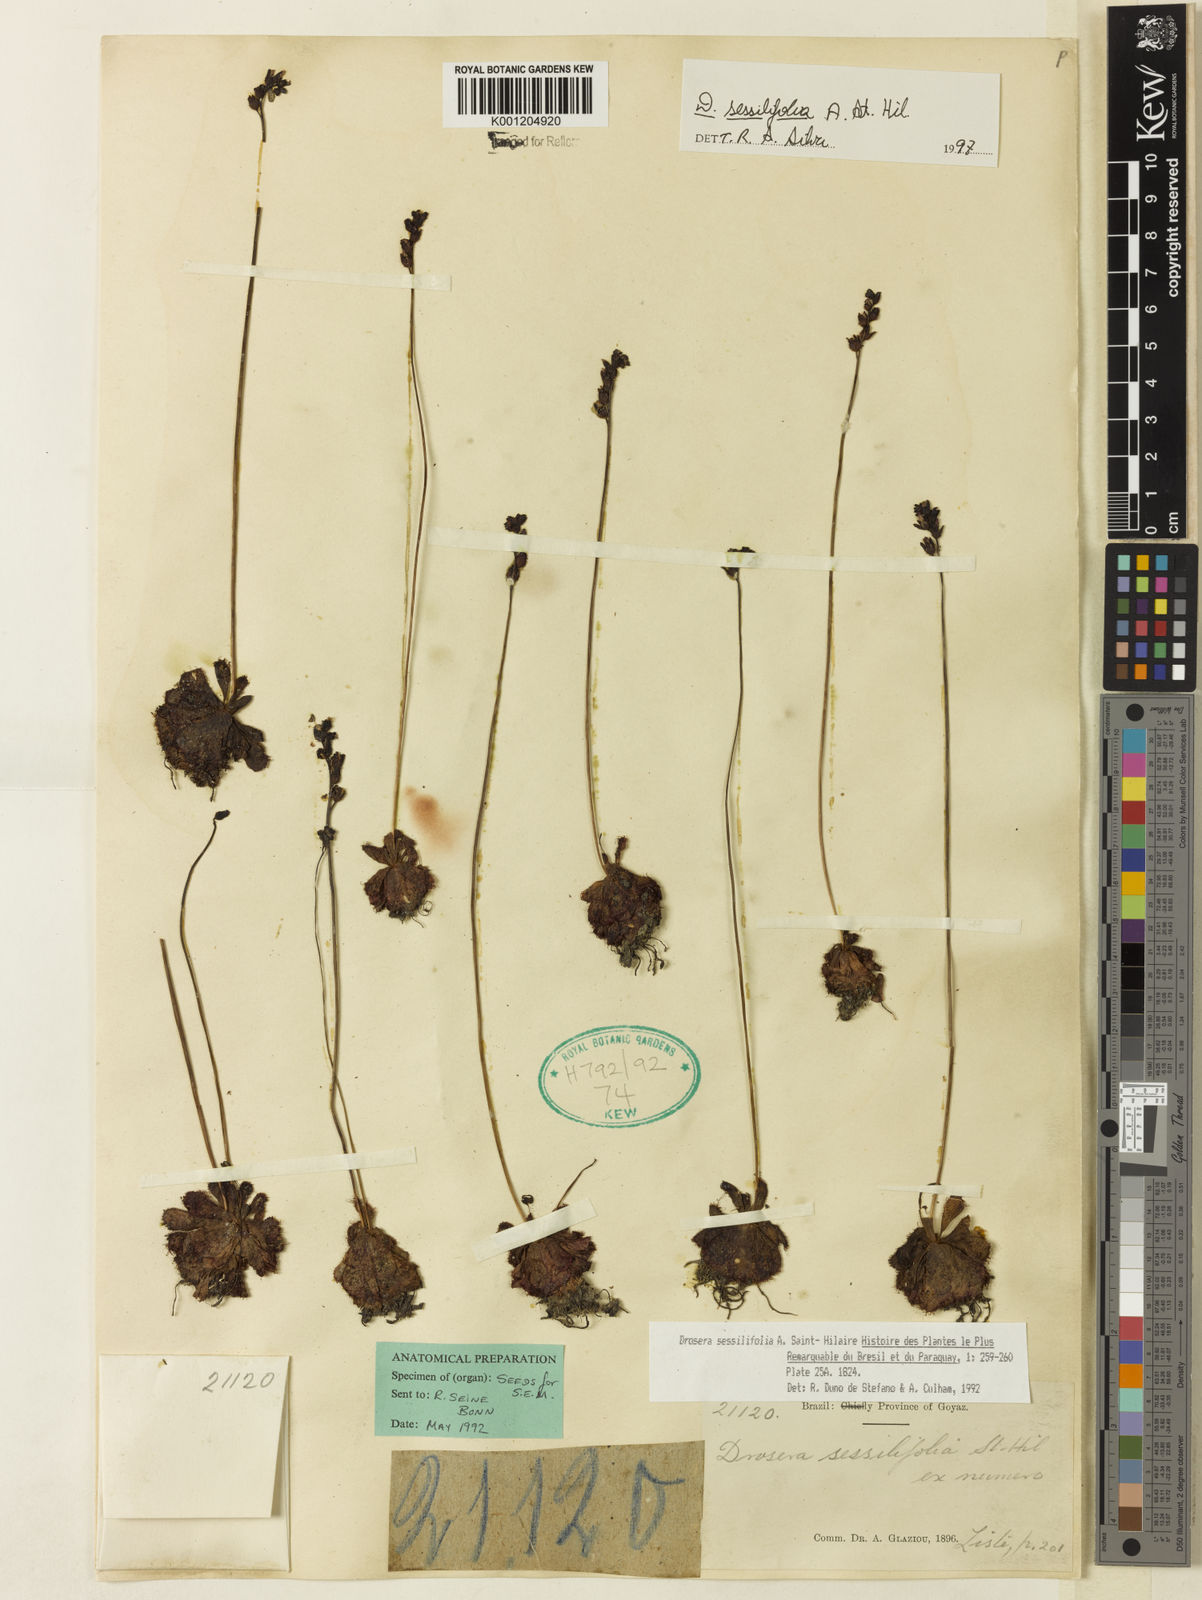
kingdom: Plantae
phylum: Tracheophyta
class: Magnoliopsida
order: Caryophyllales
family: Droseraceae
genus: Drosera
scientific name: Drosera sessilifolia
